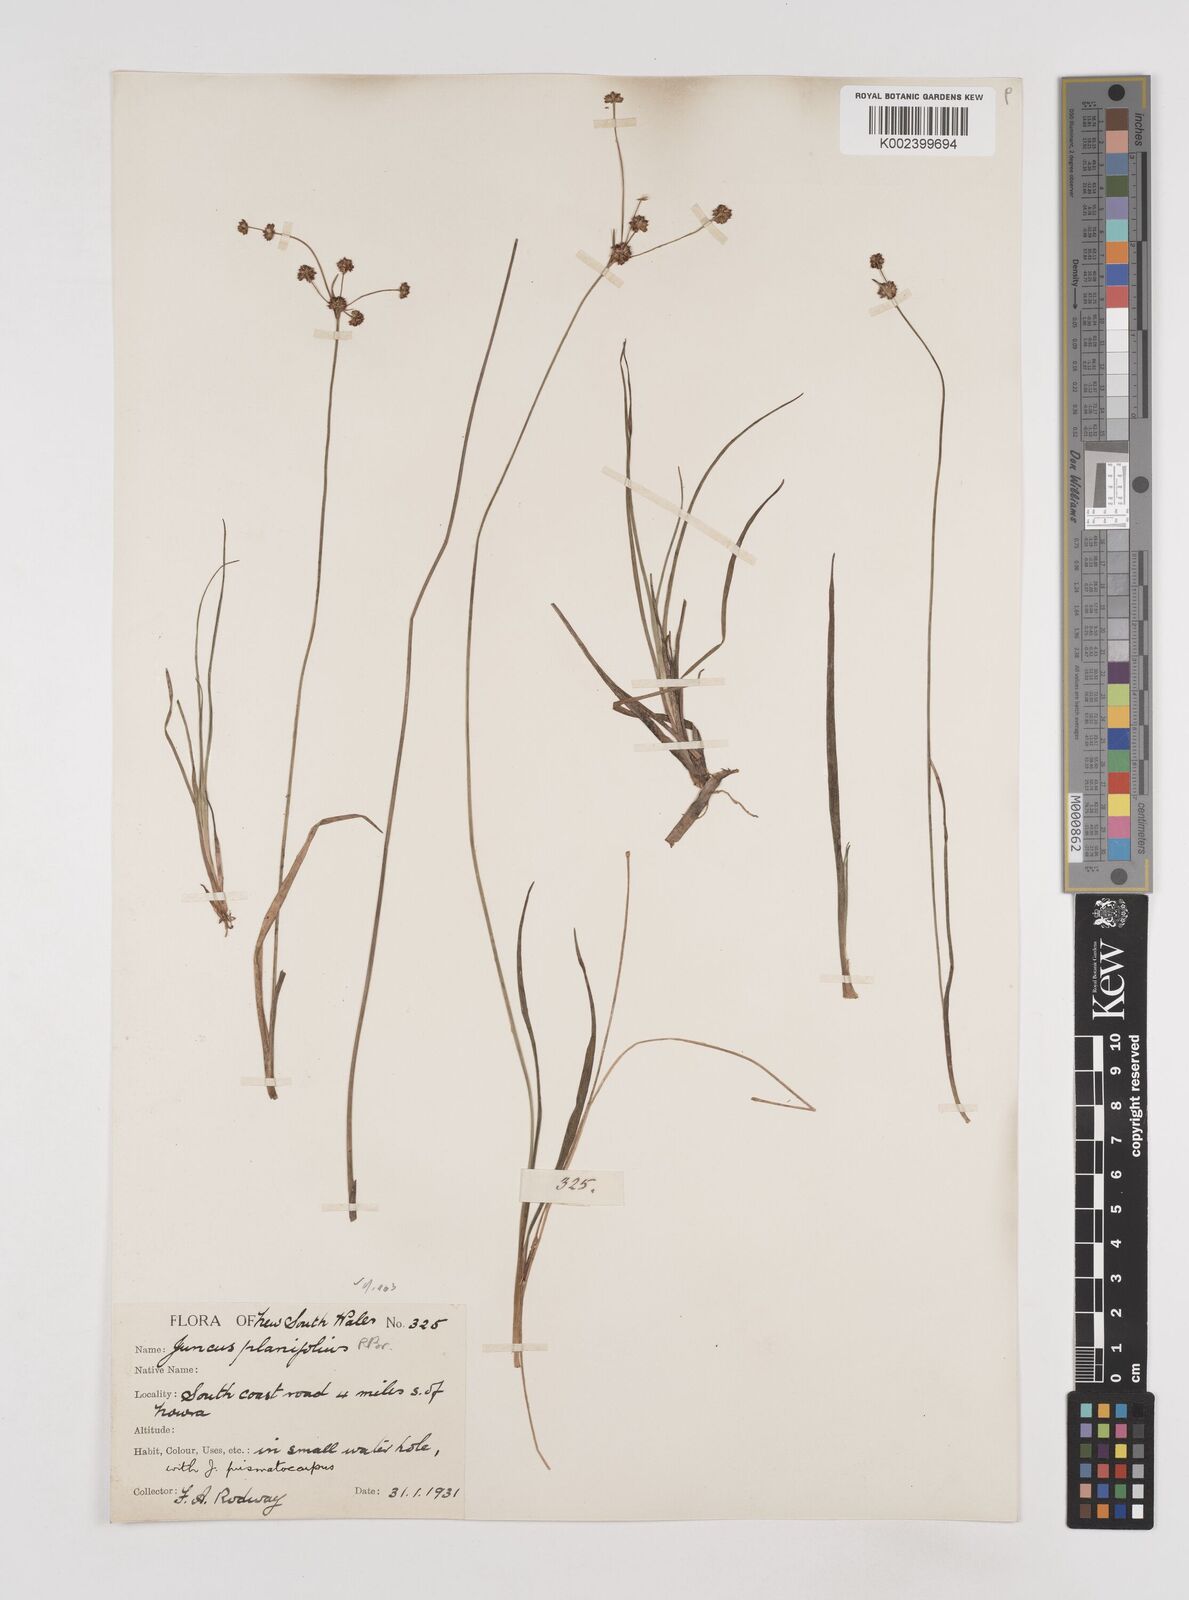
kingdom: Plantae
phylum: Tracheophyta
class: Liliopsida
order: Poales
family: Juncaceae
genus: Juncus
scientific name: Juncus planifolius
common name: Broadleaf rush
